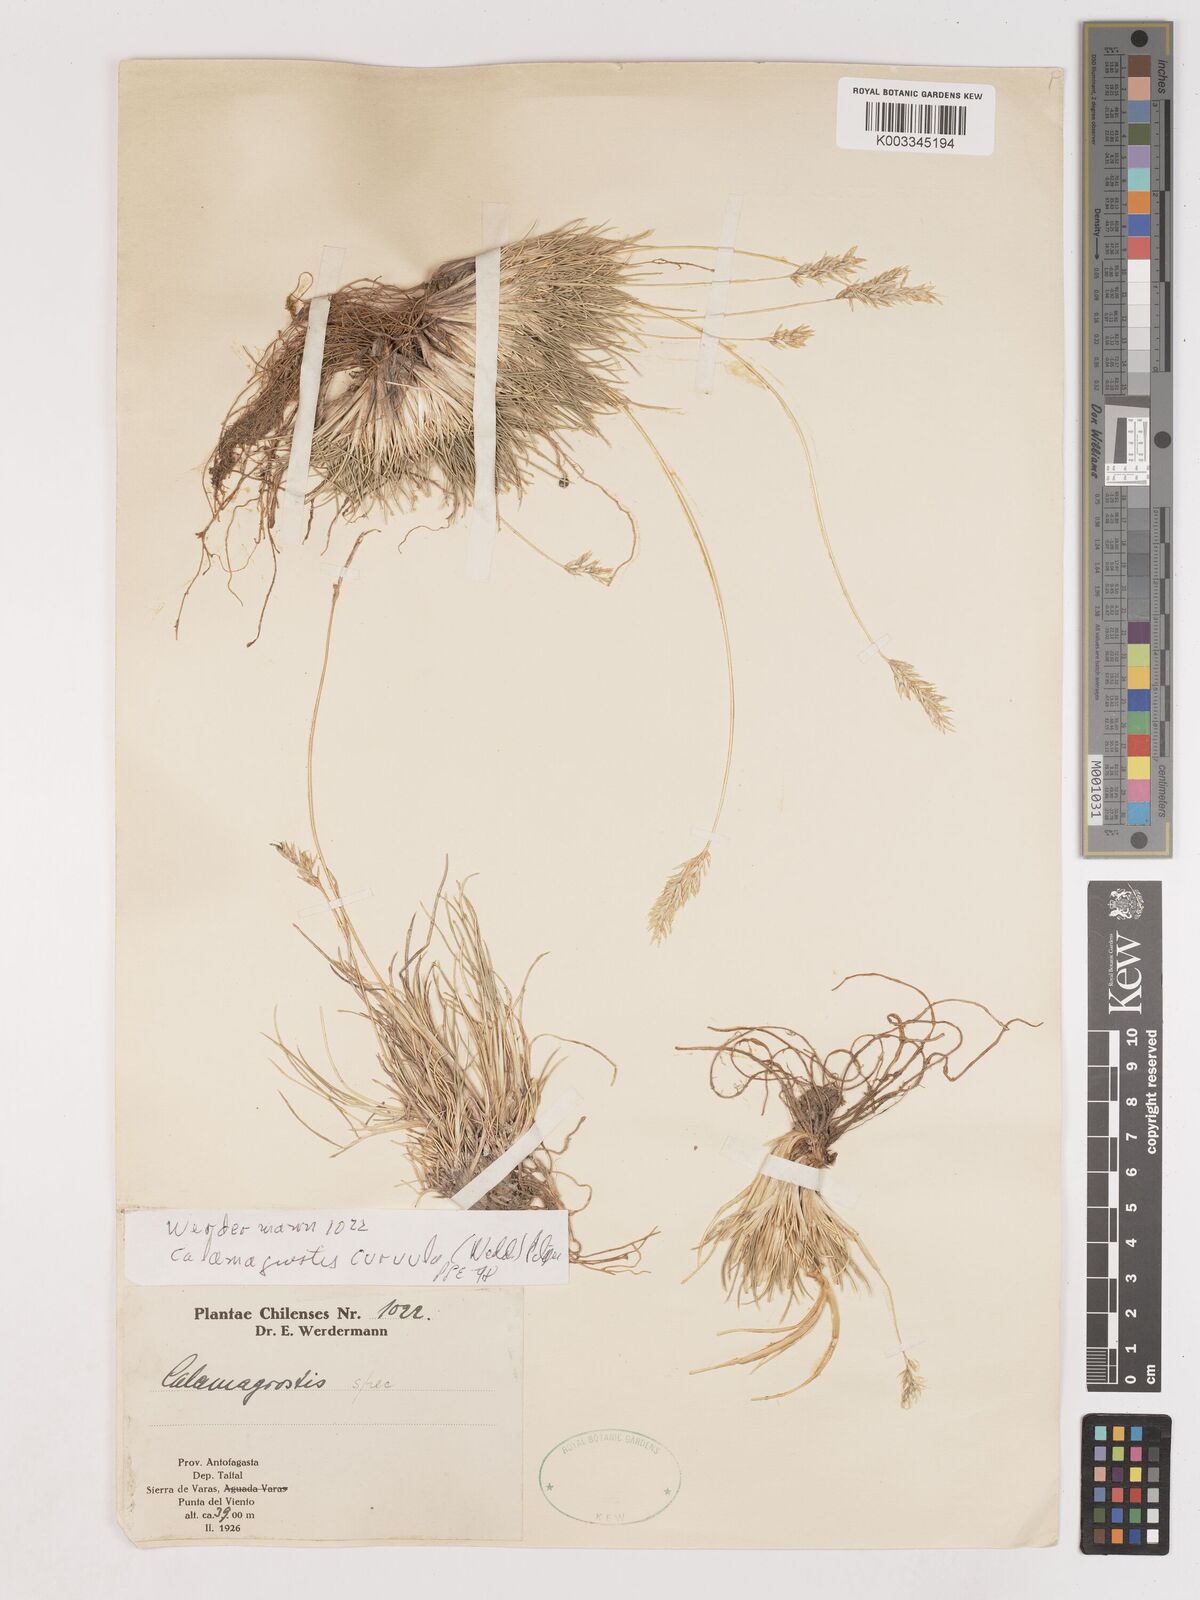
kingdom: Plantae
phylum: Tracheophyta
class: Liliopsida
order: Poales
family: Poaceae
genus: Cinnagrostis
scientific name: Cinnagrostis curvula
